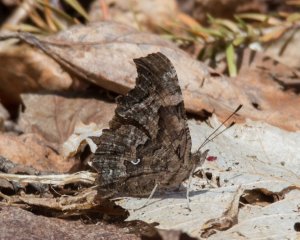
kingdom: Animalia
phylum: Arthropoda
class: Insecta
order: Lepidoptera
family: Nymphalidae
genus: Polygonia
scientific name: Polygonia faunus
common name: Green Comma
